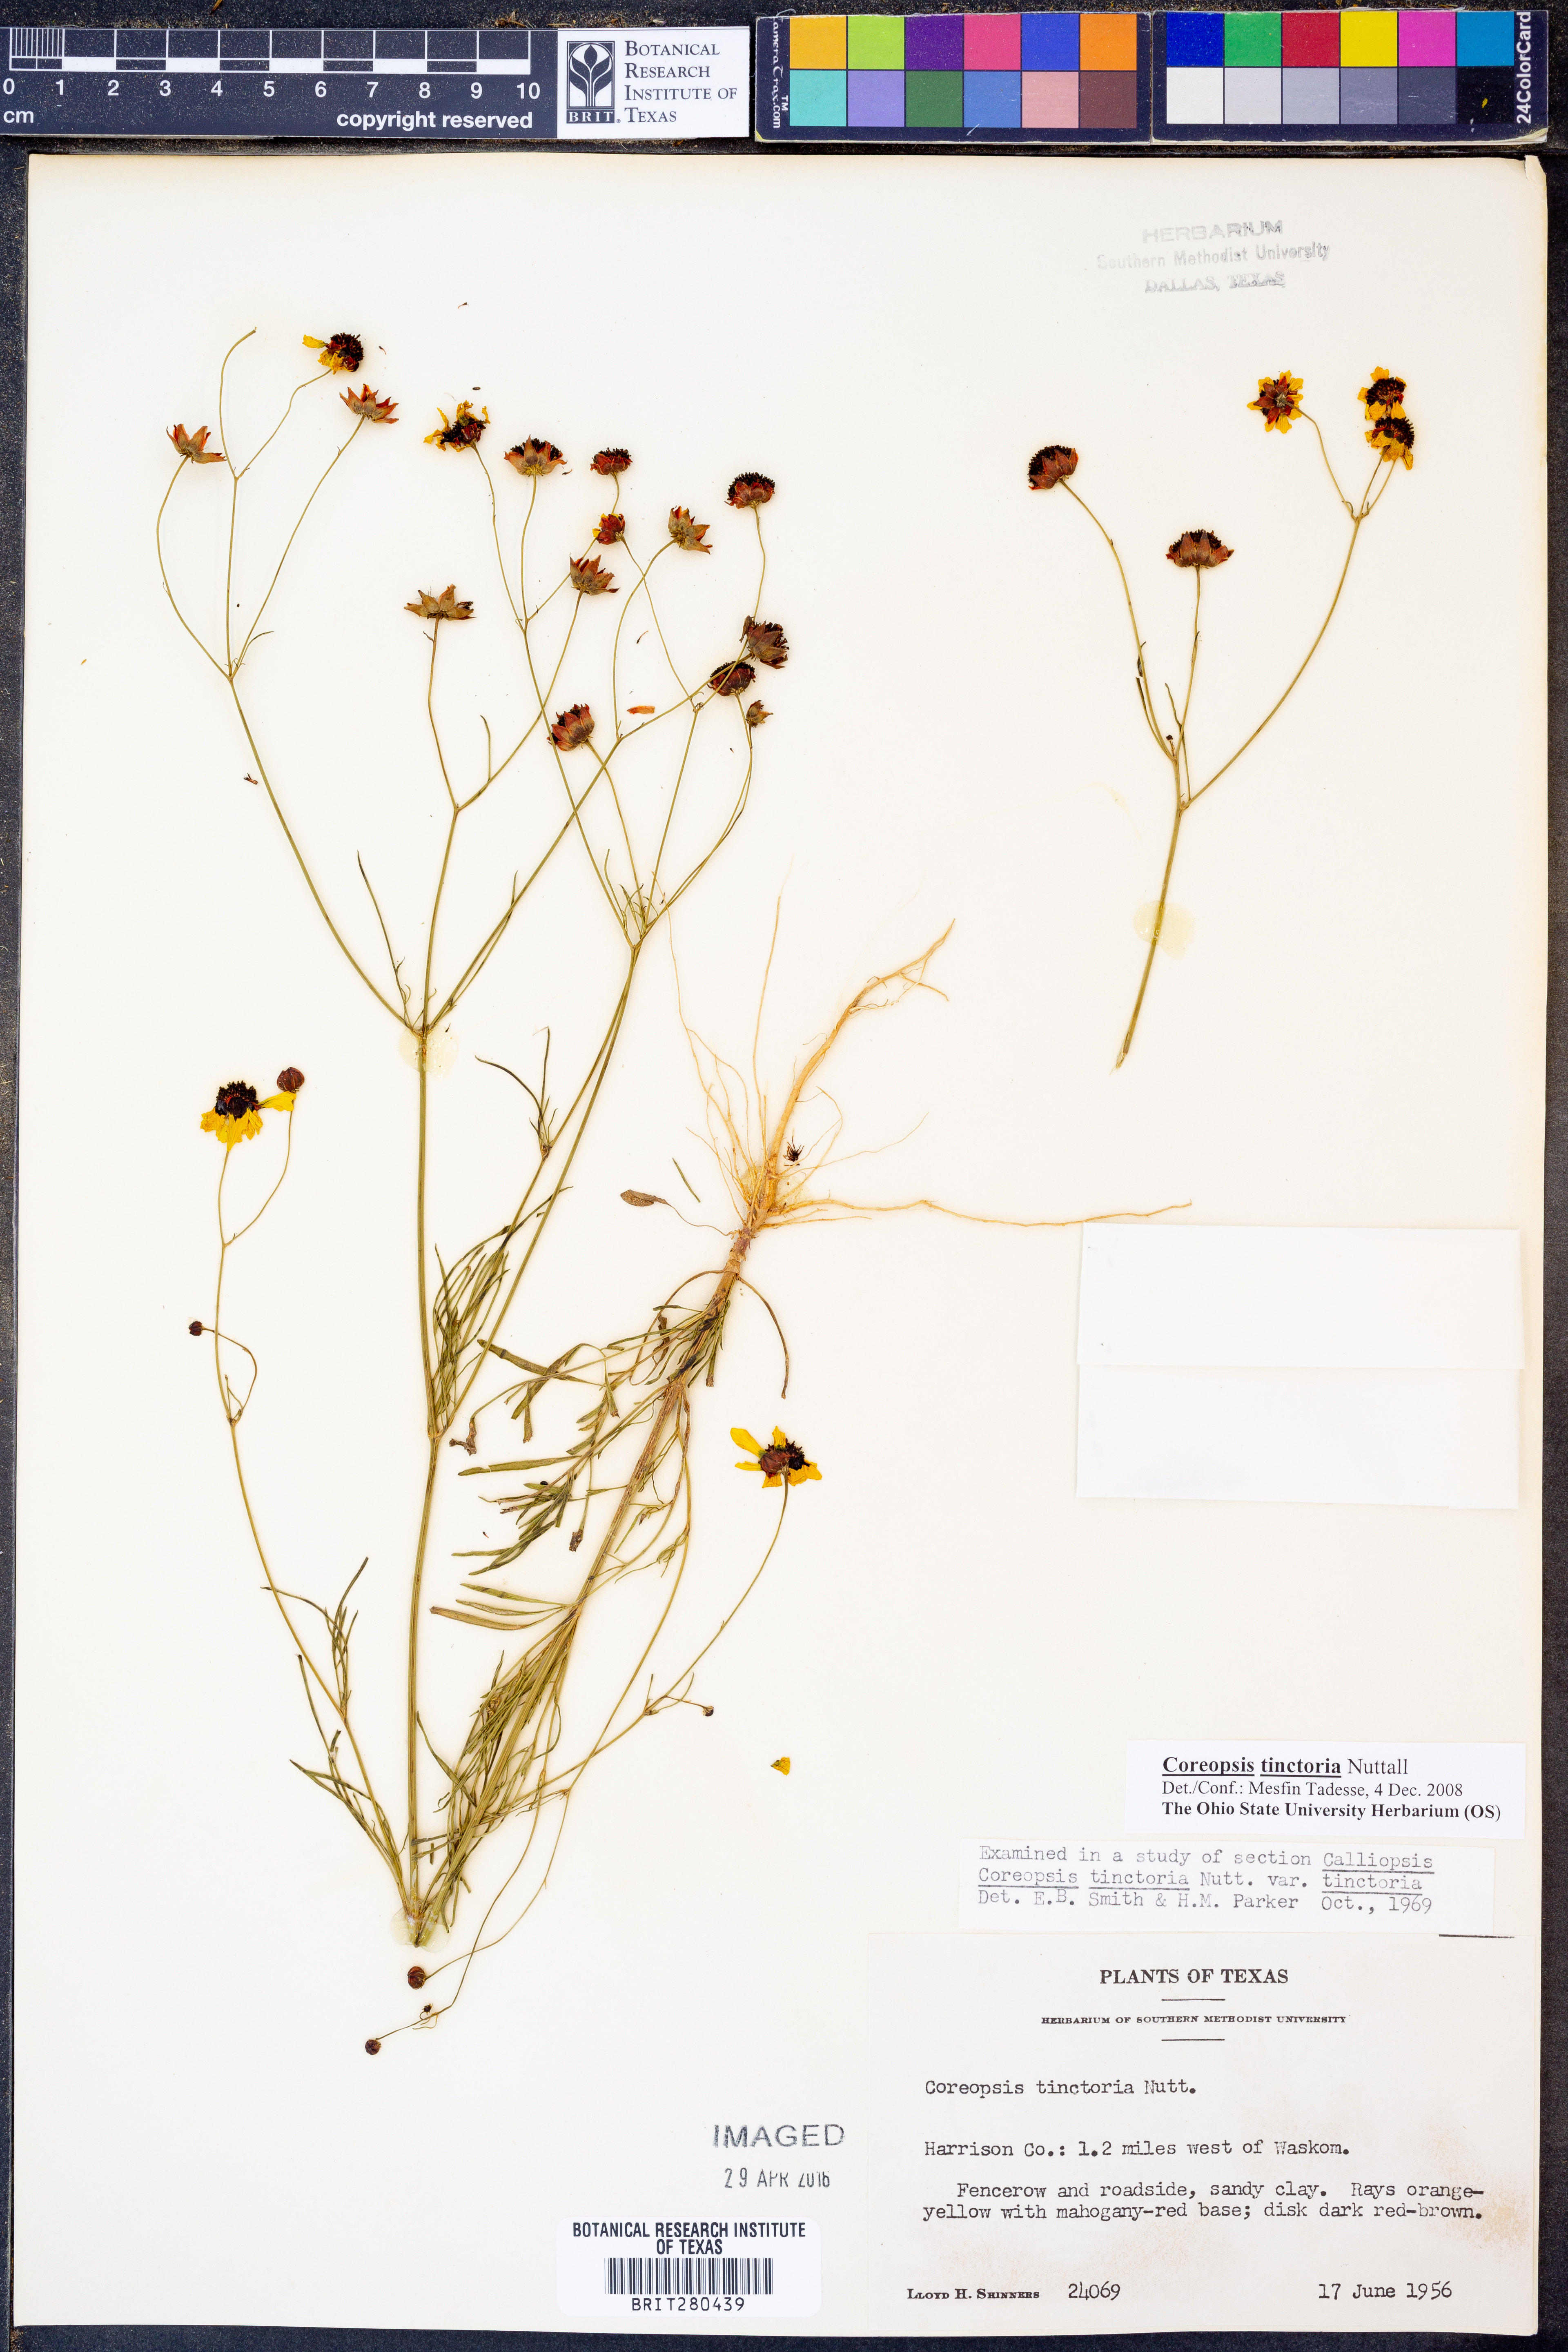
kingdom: Plantae
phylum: Tracheophyta
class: Magnoliopsida
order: Asterales
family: Asteraceae
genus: Coreopsis
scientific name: Coreopsis tinctoria
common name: Garden tickseed
